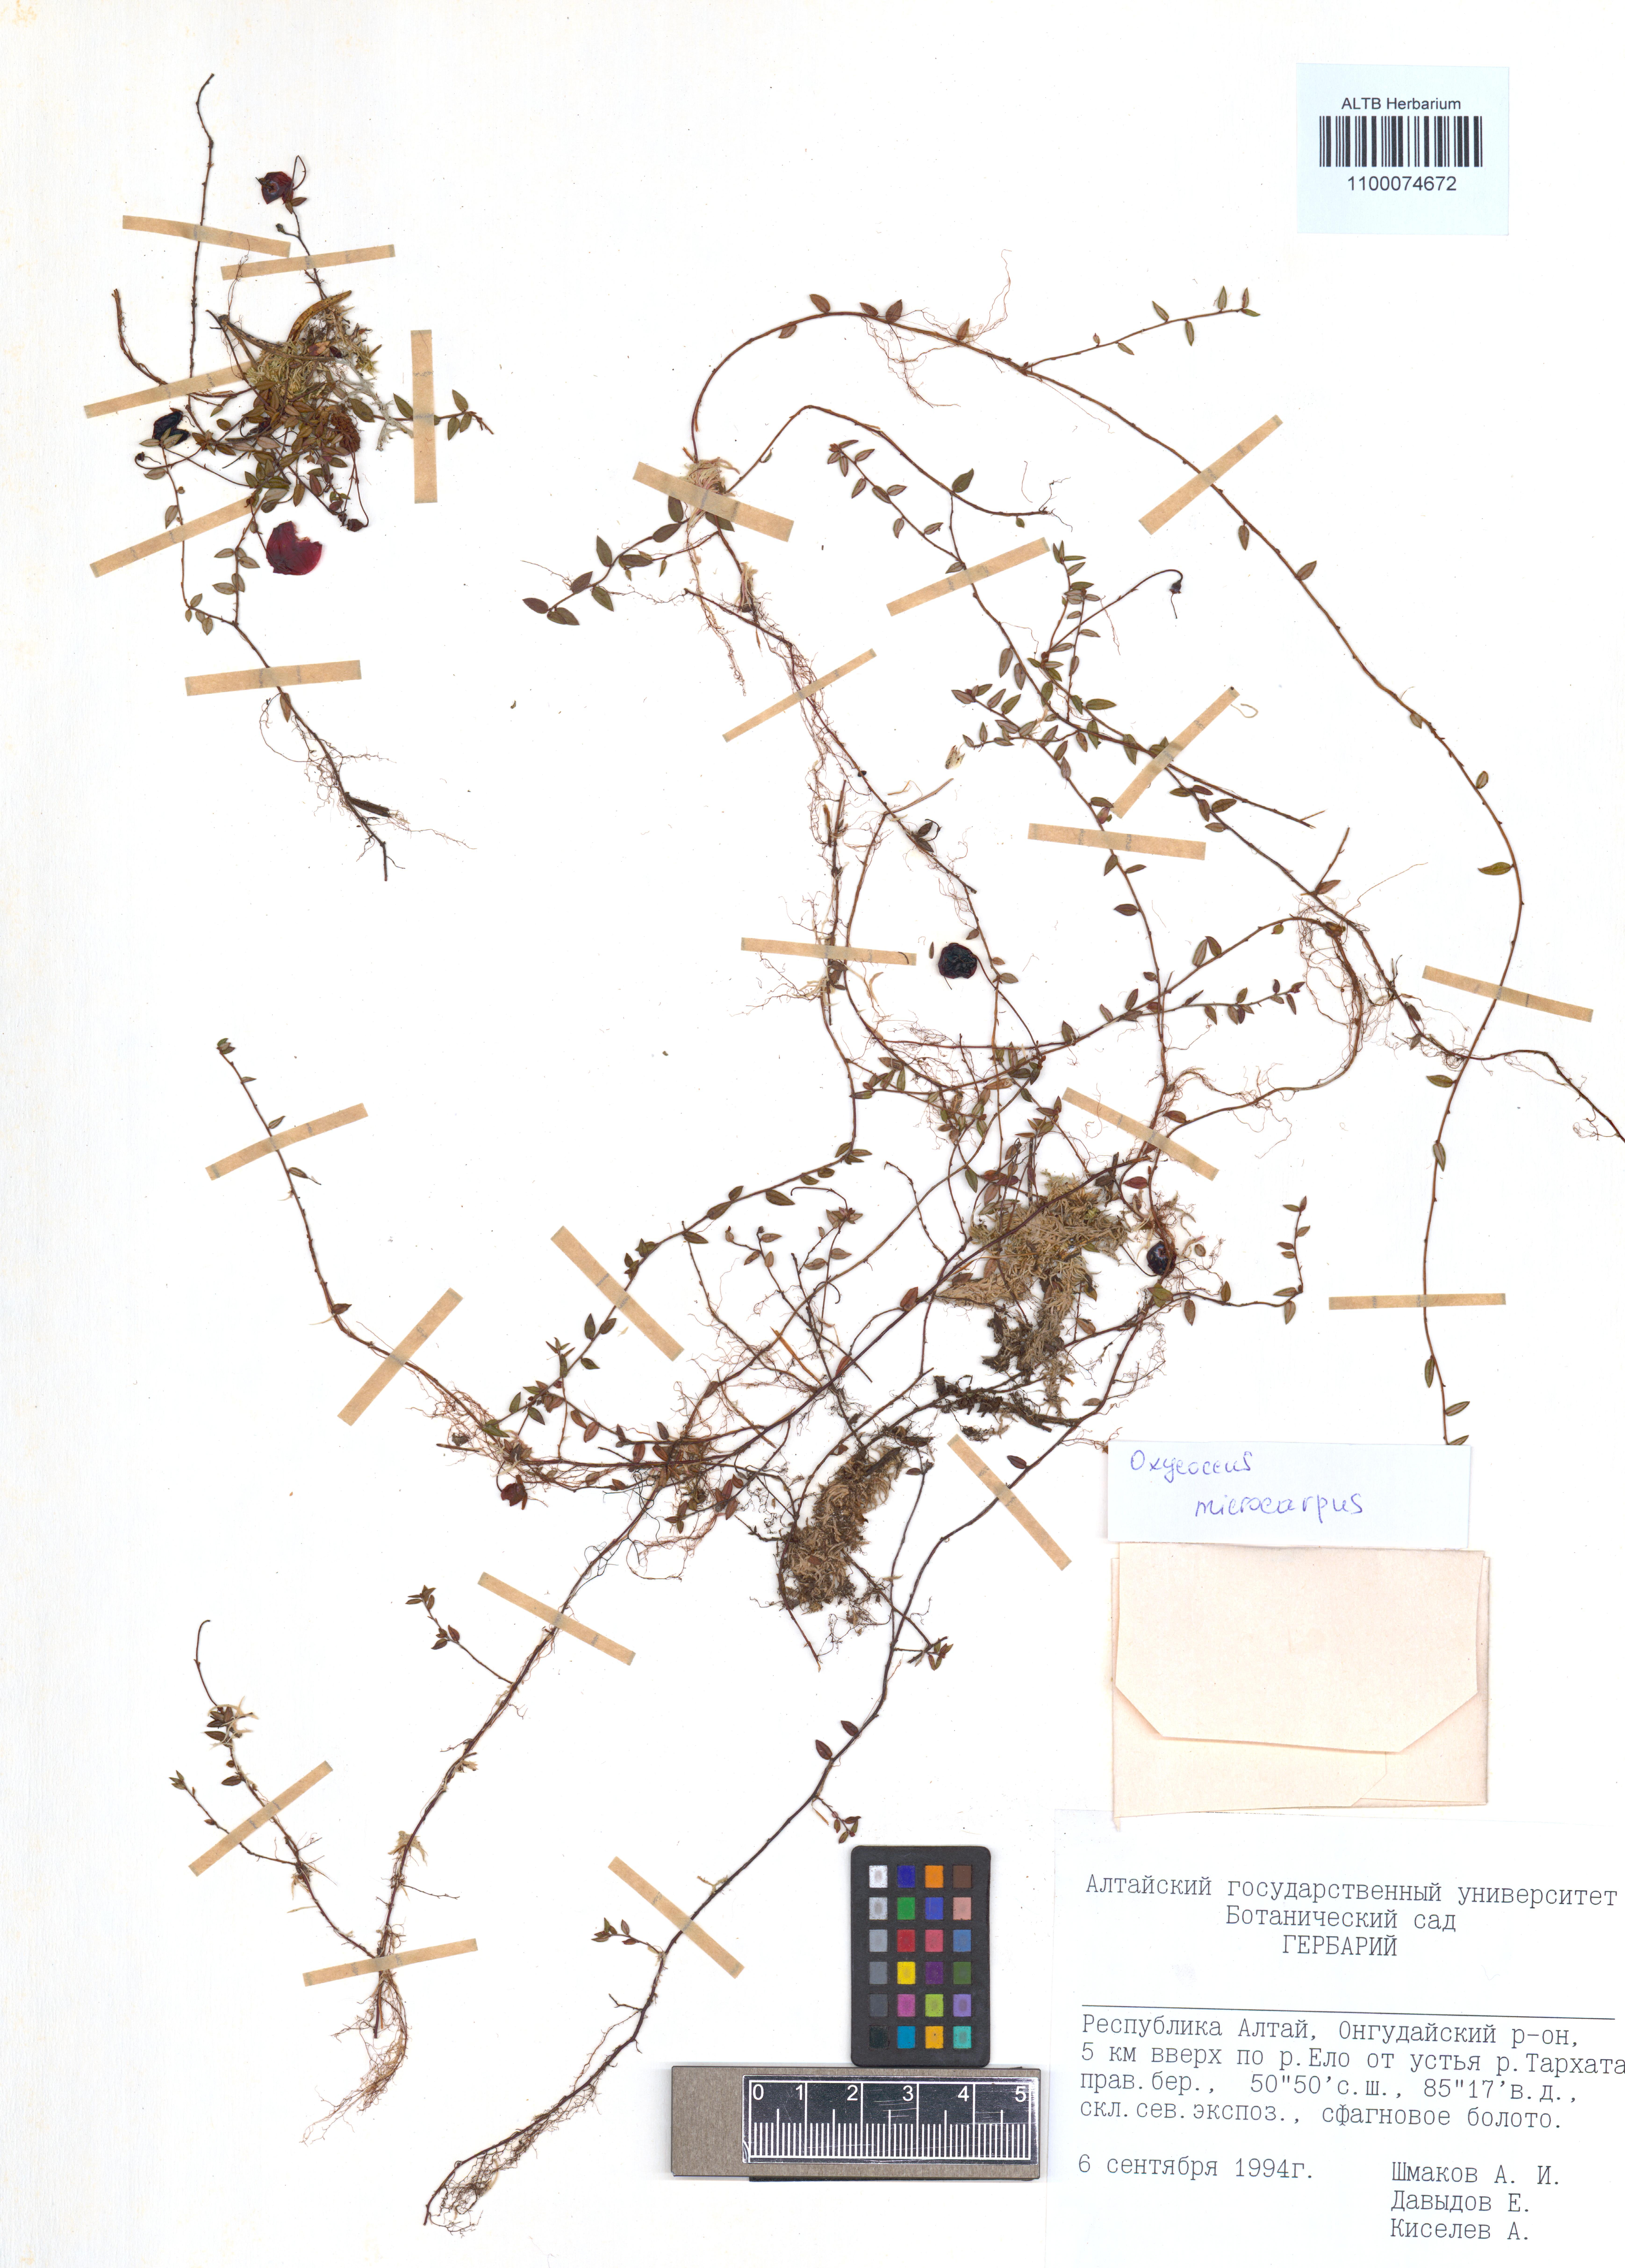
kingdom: Plantae
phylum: Tracheophyta
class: Magnoliopsida
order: Ericales
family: Ericaceae
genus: Vaccinium
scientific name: Vaccinium microcarpum
